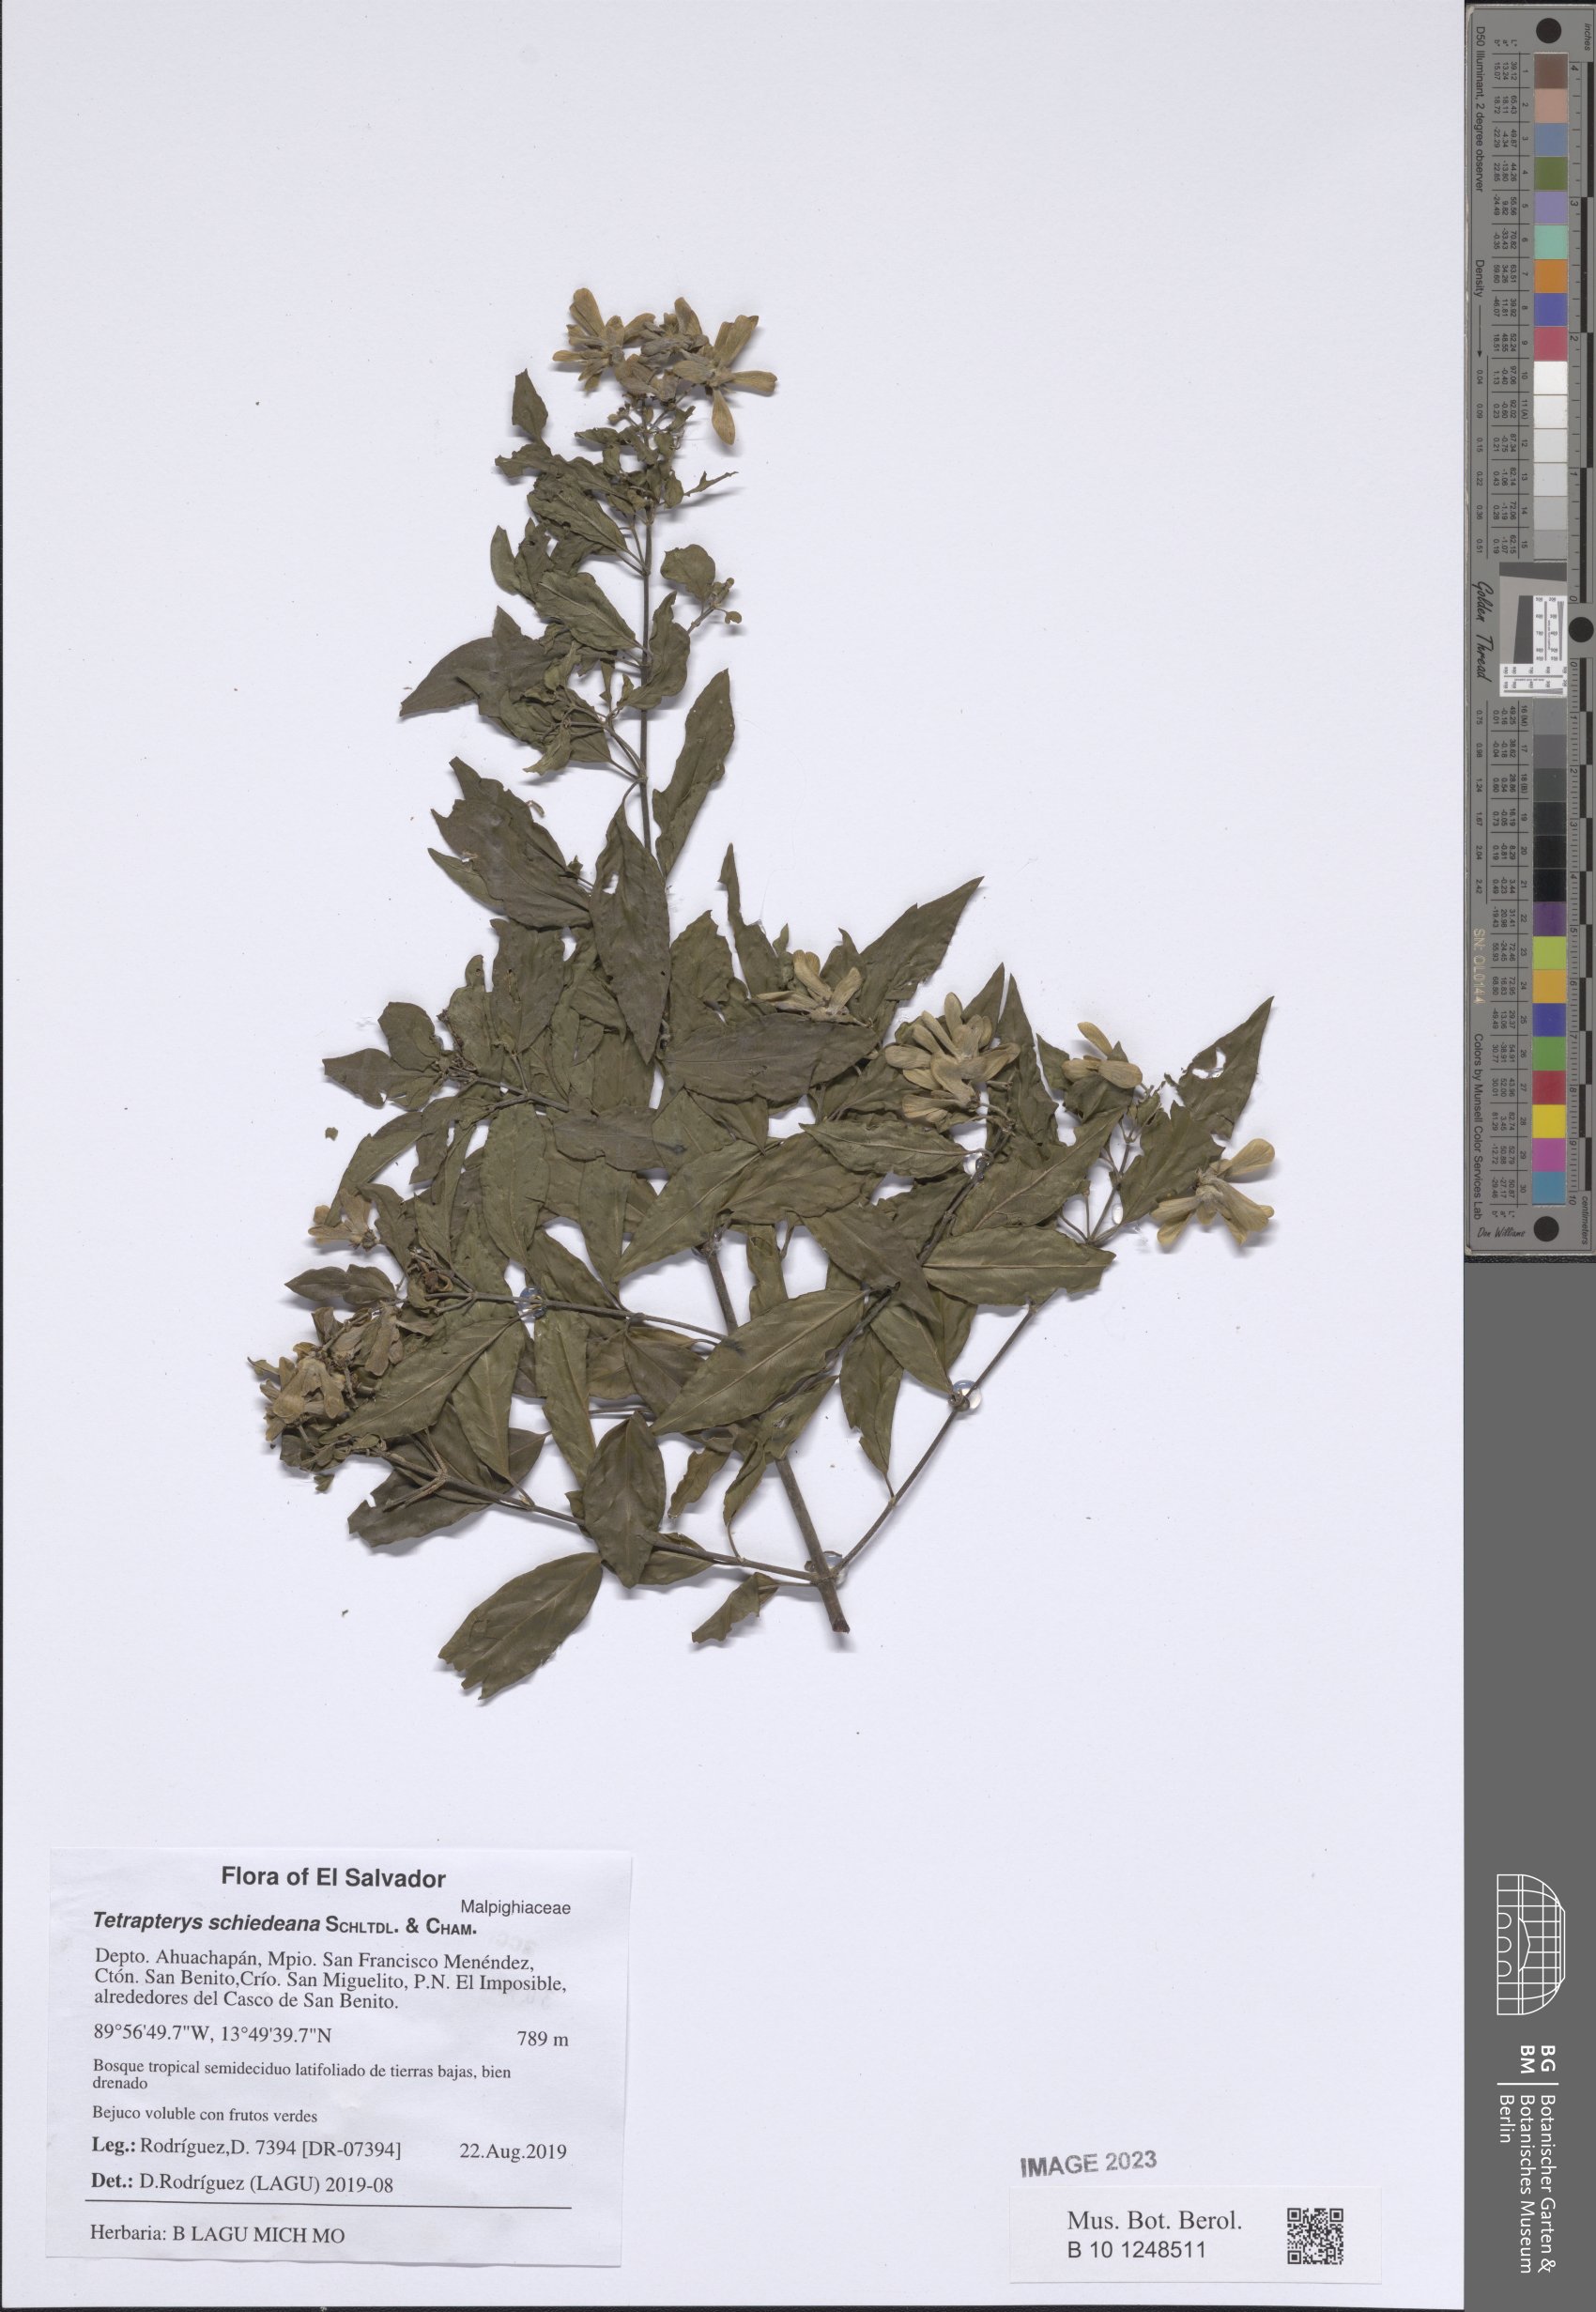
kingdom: Plantae
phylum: Tracheophyta
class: Magnoliopsida
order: Malpighiales
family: Malpighiaceae
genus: Tetrapterys
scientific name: Tetrapterys schiedeana
